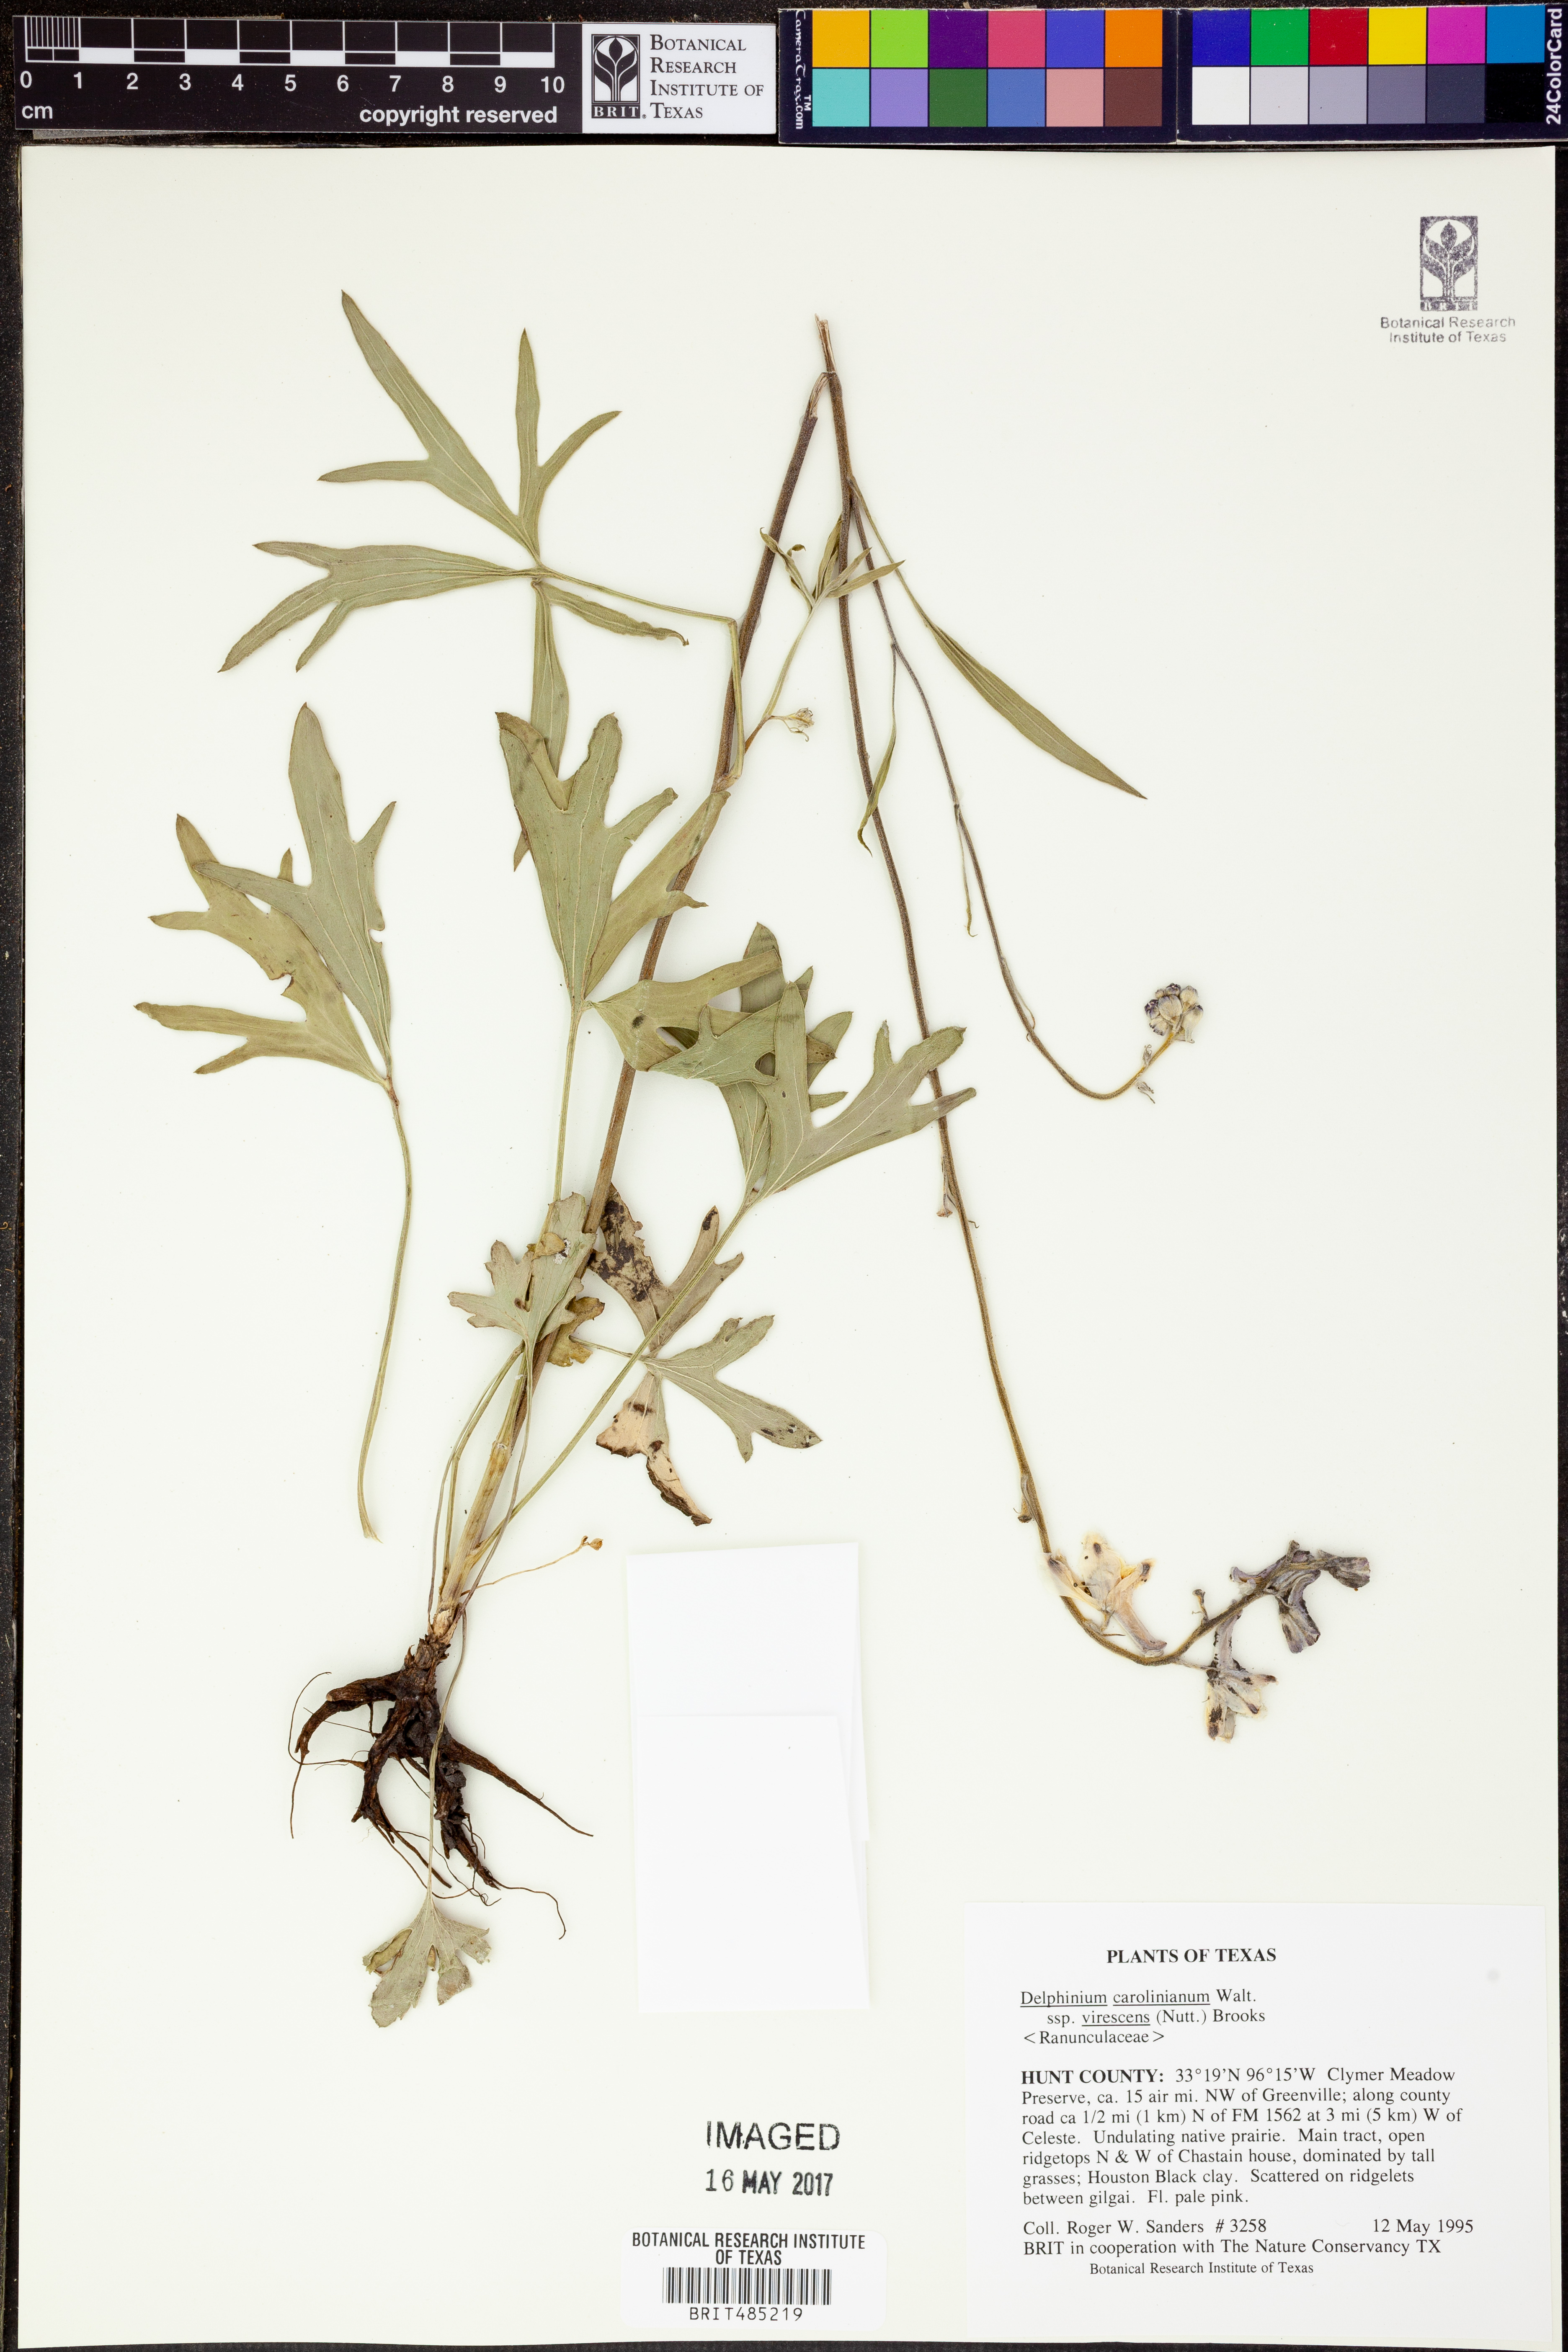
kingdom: Plantae
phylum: Tracheophyta
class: Magnoliopsida
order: Ranunculales
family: Ranunculaceae
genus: Delphinium
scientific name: Delphinium carolinianum
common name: Carolina larkspur
